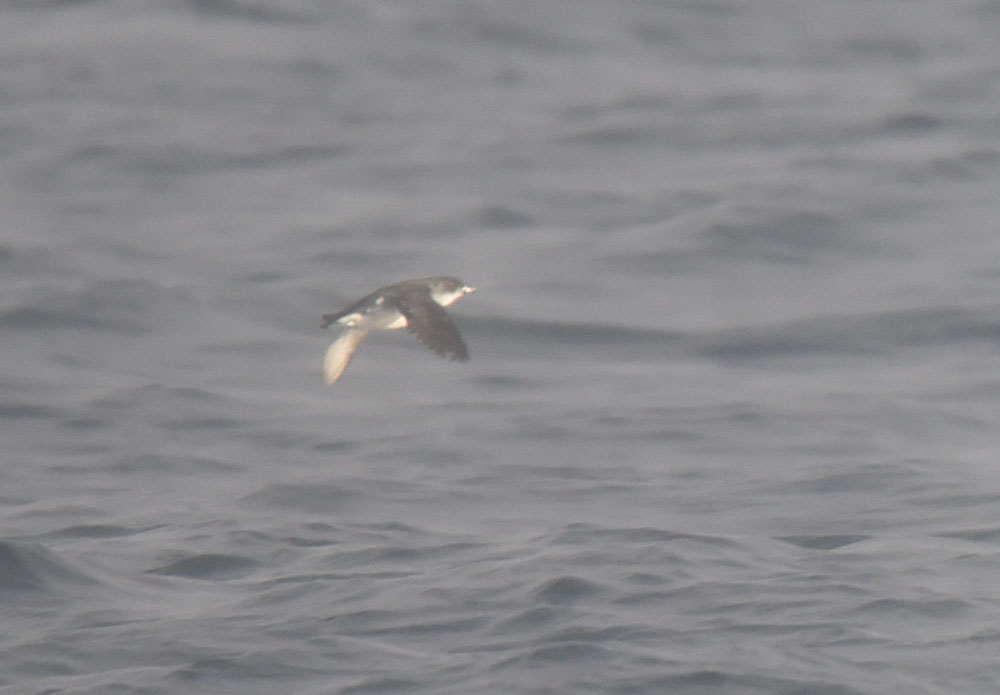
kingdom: Animalia
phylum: Chordata
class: Aves
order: Procellariiformes
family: Pelecanoididae
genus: Pelecanoides
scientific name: Pelecanoides urinatrix
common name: Common diving-petrel
